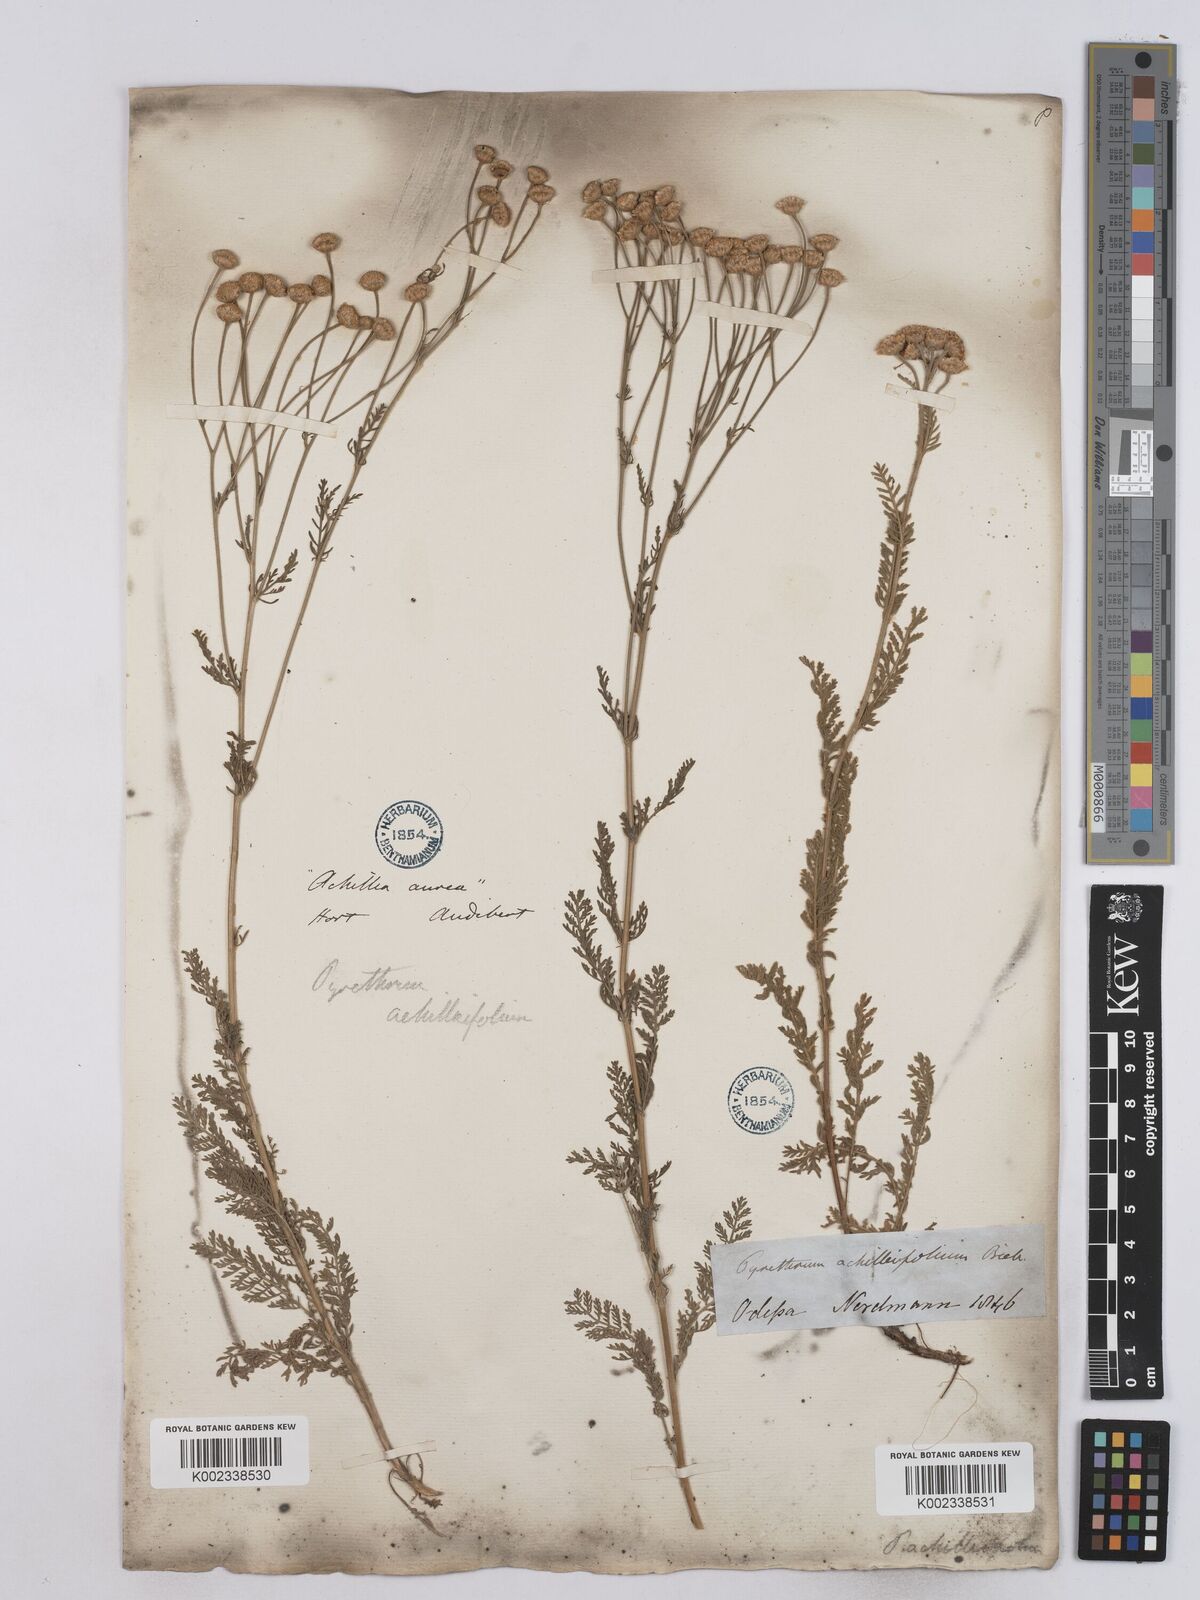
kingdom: Plantae
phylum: Tracheophyta
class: Magnoliopsida
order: Asterales
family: Asteraceae
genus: Tanacetum
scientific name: Tanacetum achilleifolium
